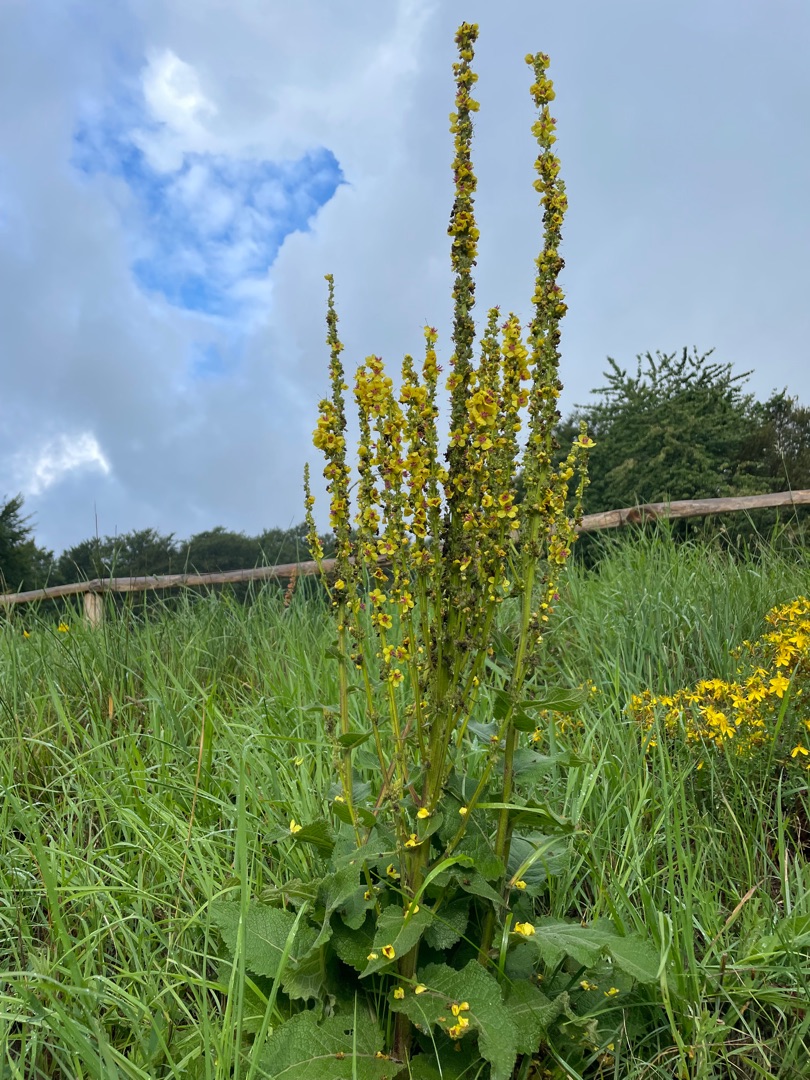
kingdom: Plantae
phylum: Tracheophyta
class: Magnoliopsida
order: Lamiales
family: Scrophulariaceae
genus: Verbascum
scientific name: Verbascum nigrum
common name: Mørk kongelys
